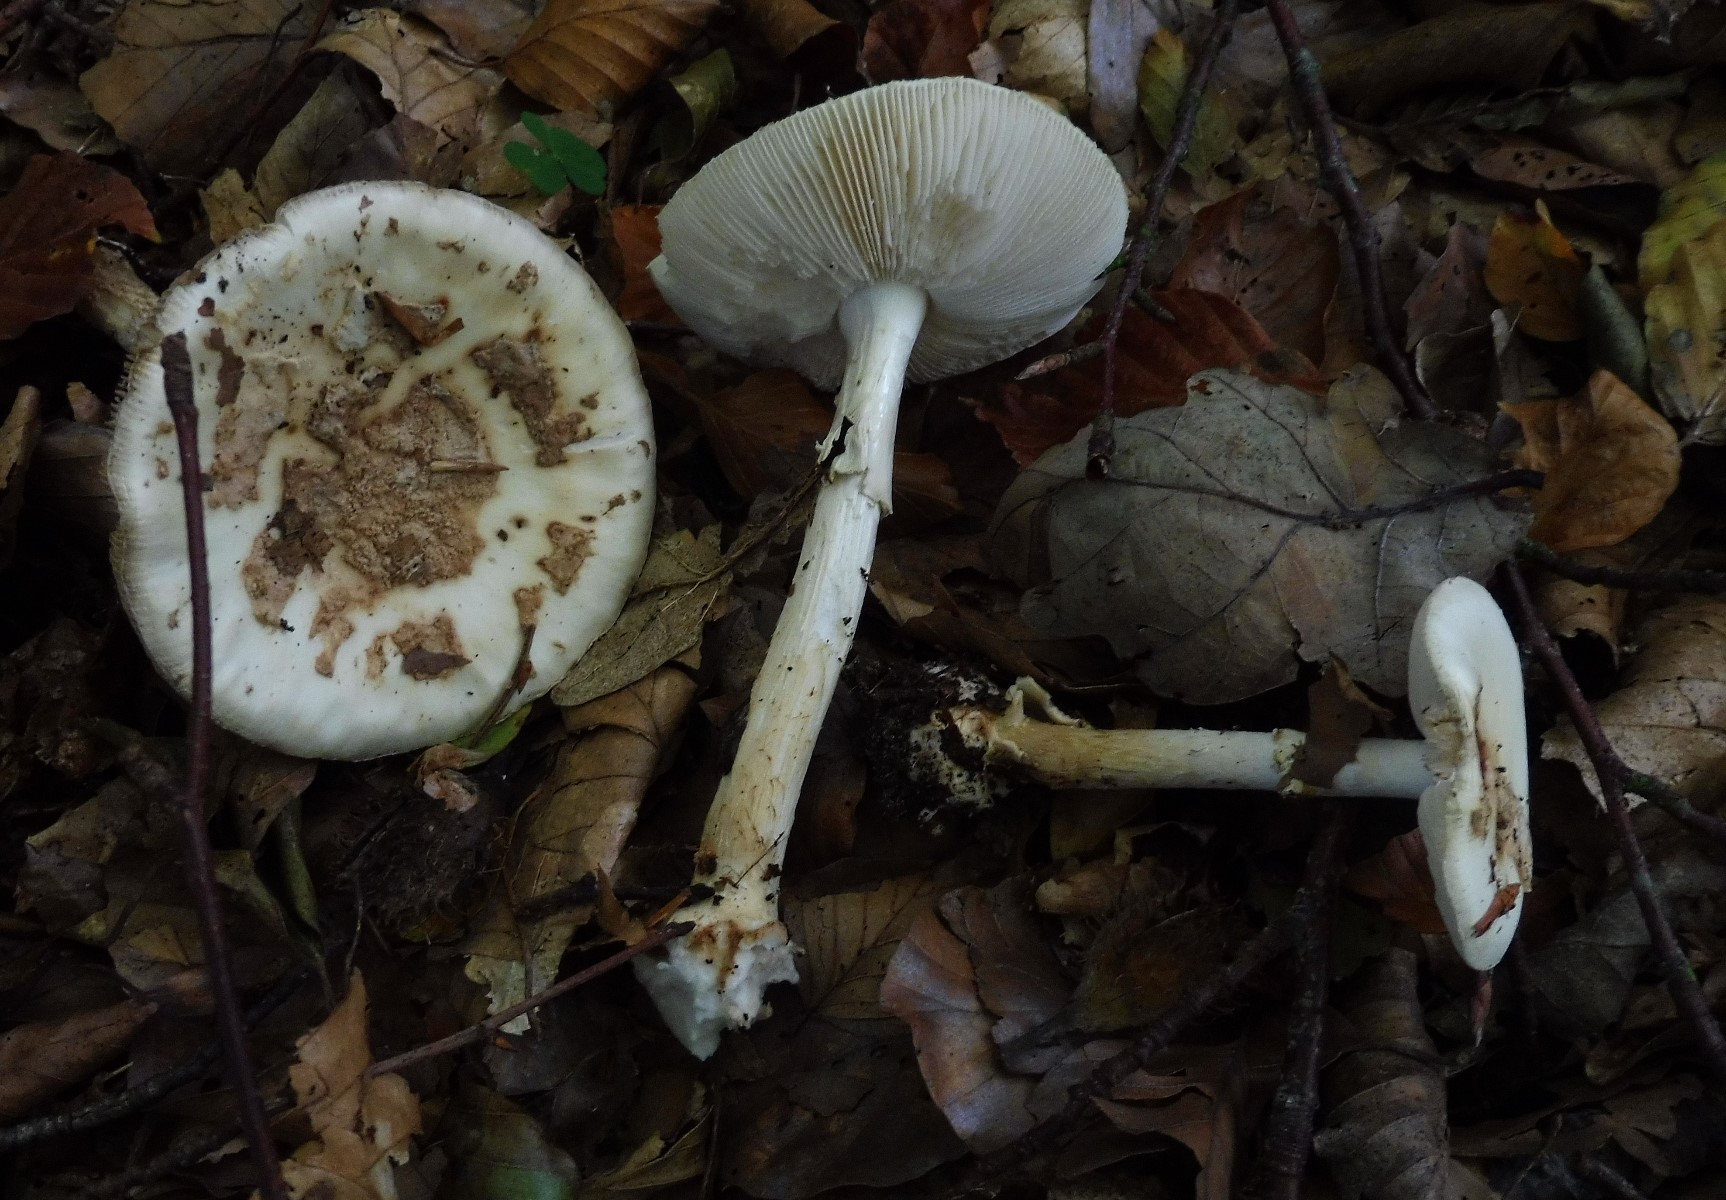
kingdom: Fungi
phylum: Basidiomycota
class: Agaricomycetes
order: Agaricales
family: Amanitaceae
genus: Amanita
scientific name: Amanita citrina
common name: kugleknoldet fluesvamp
